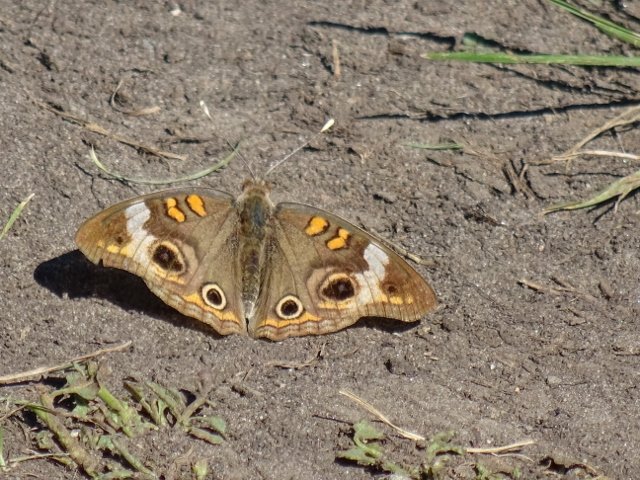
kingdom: Animalia
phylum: Arthropoda
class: Insecta
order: Lepidoptera
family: Nymphalidae
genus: Junonia
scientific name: Junonia coenia
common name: Common Buckeye
